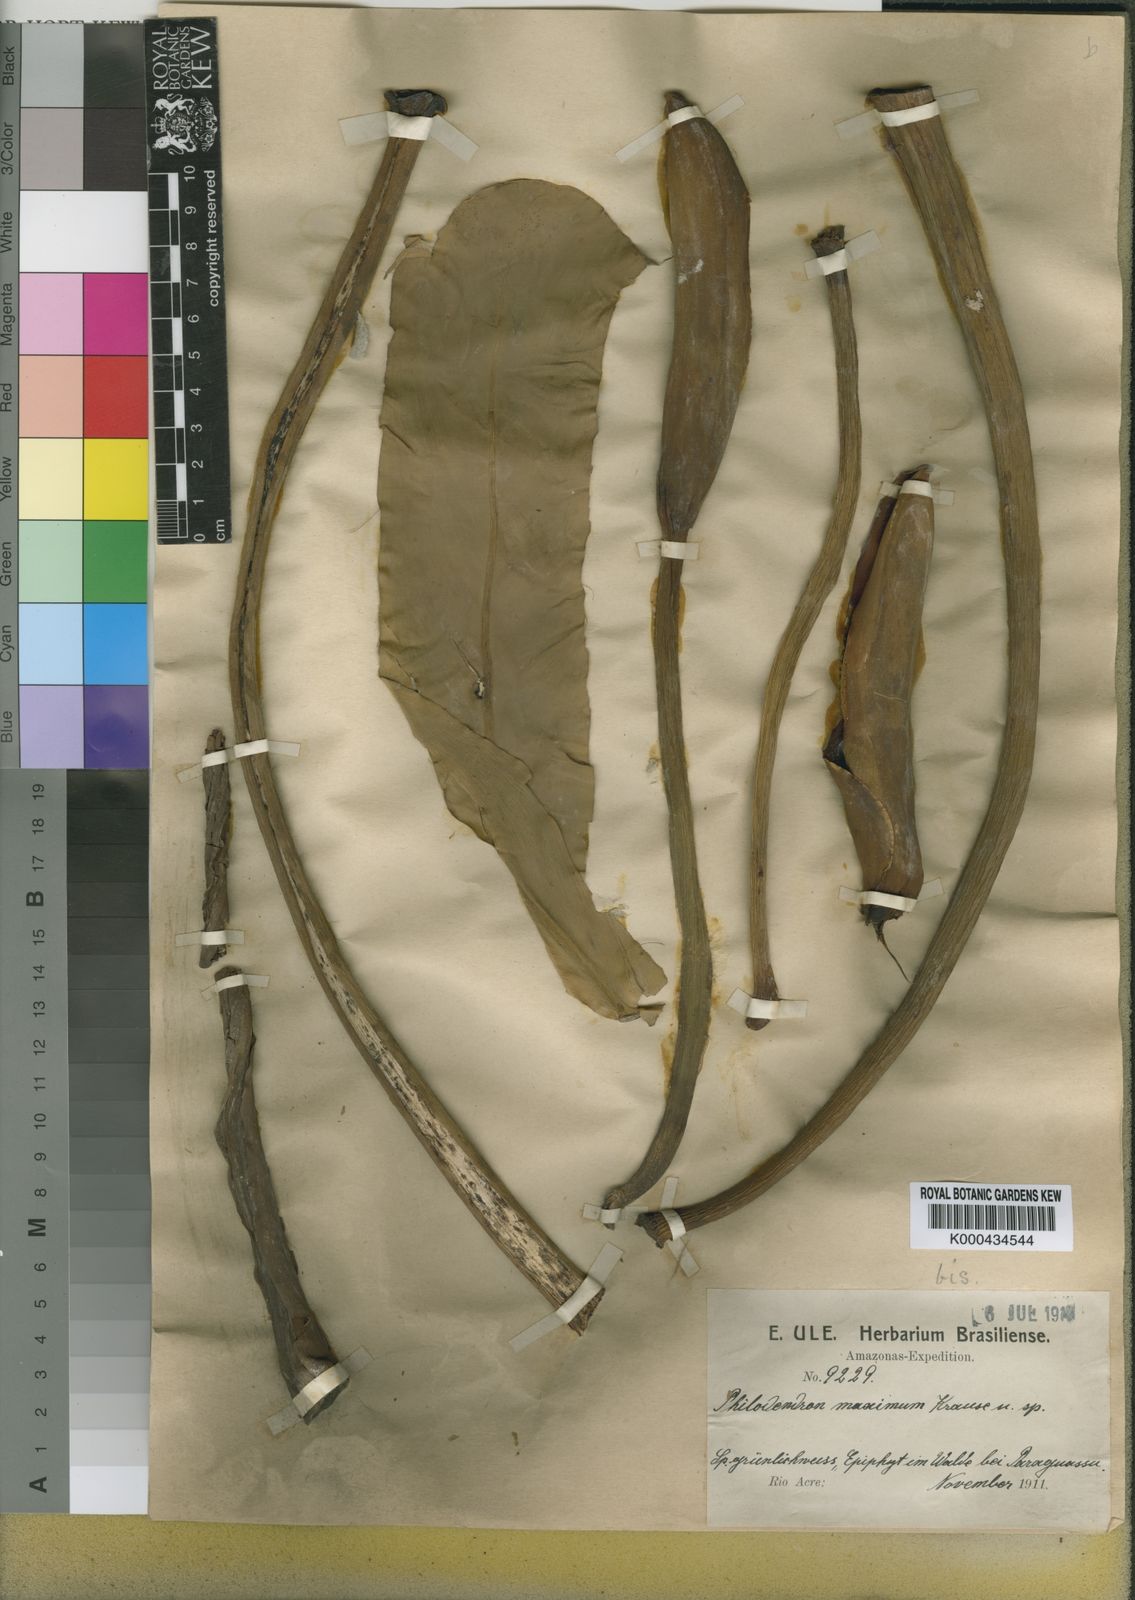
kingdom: Plantae
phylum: Tracheophyta
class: Liliopsida
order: Alismatales
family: Araceae
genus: Philodendron
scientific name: Philodendron maximum
